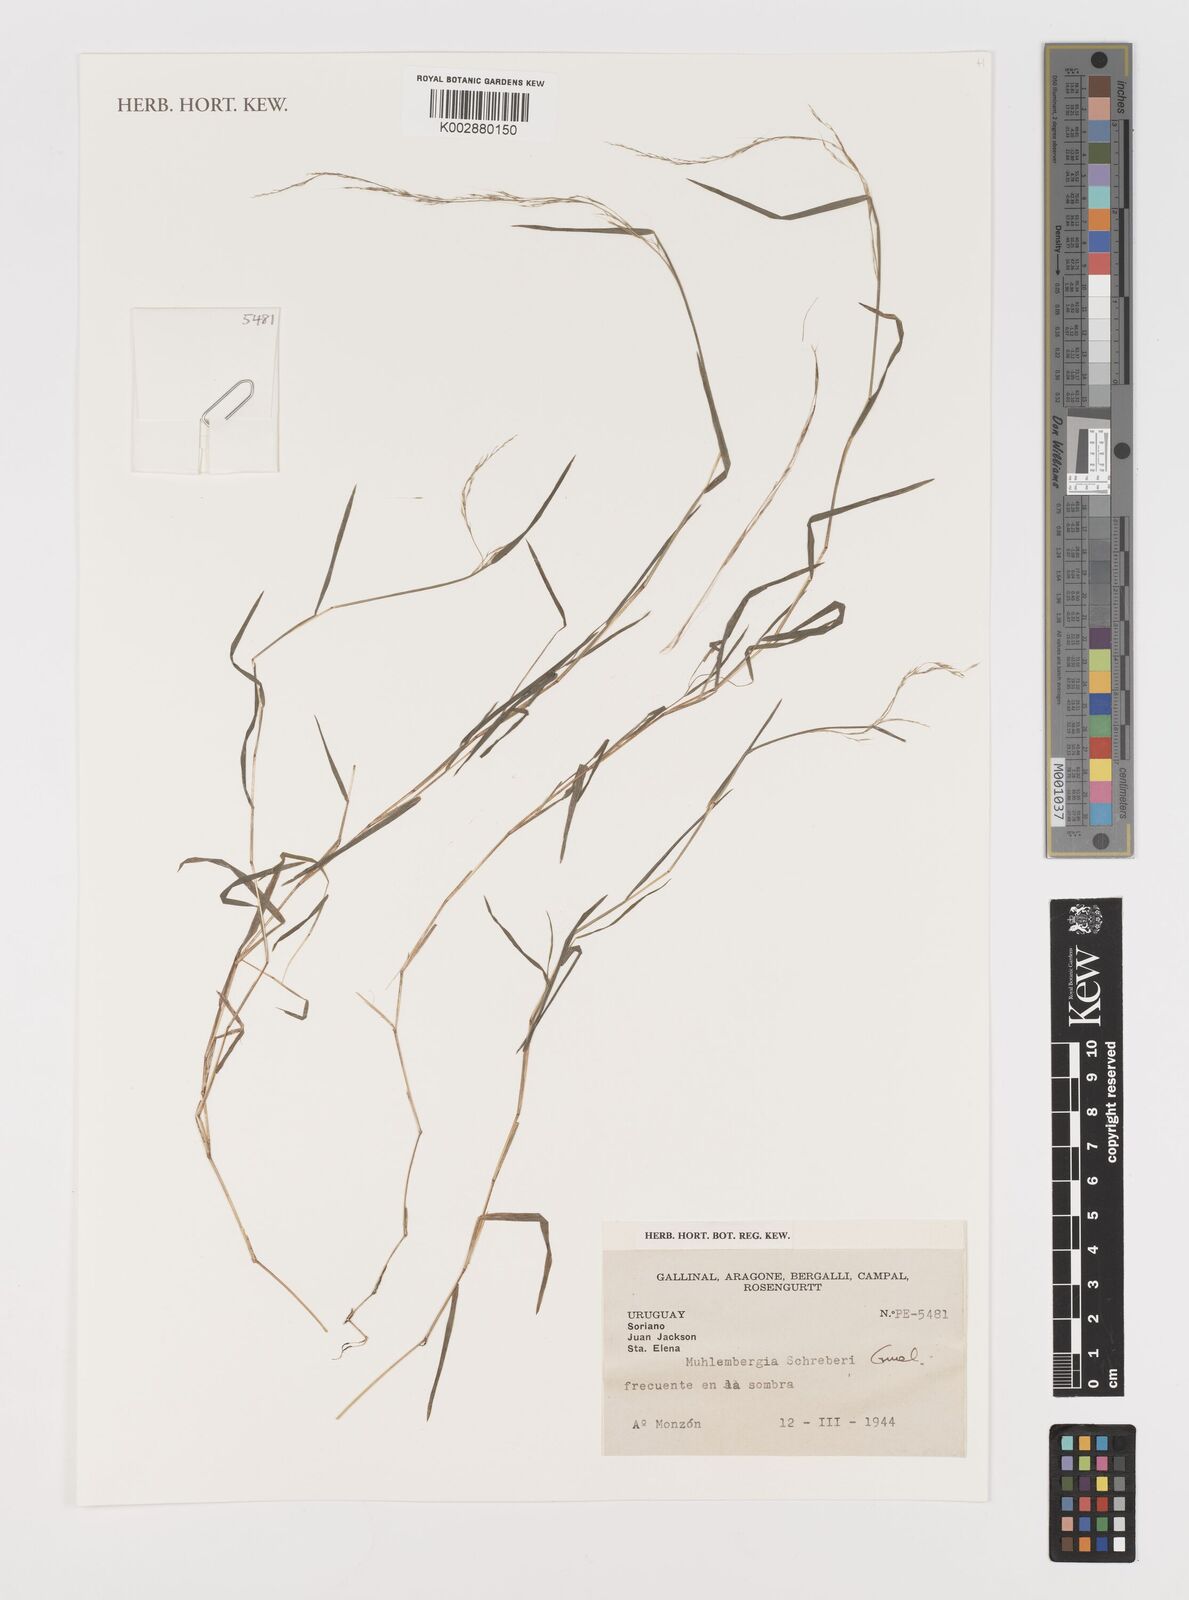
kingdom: Plantae
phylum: Tracheophyta
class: Liliopsida
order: Poales
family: Poaceae
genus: Muhlenbergia
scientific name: Muhlenbergia schreberi
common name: Nimblewill
